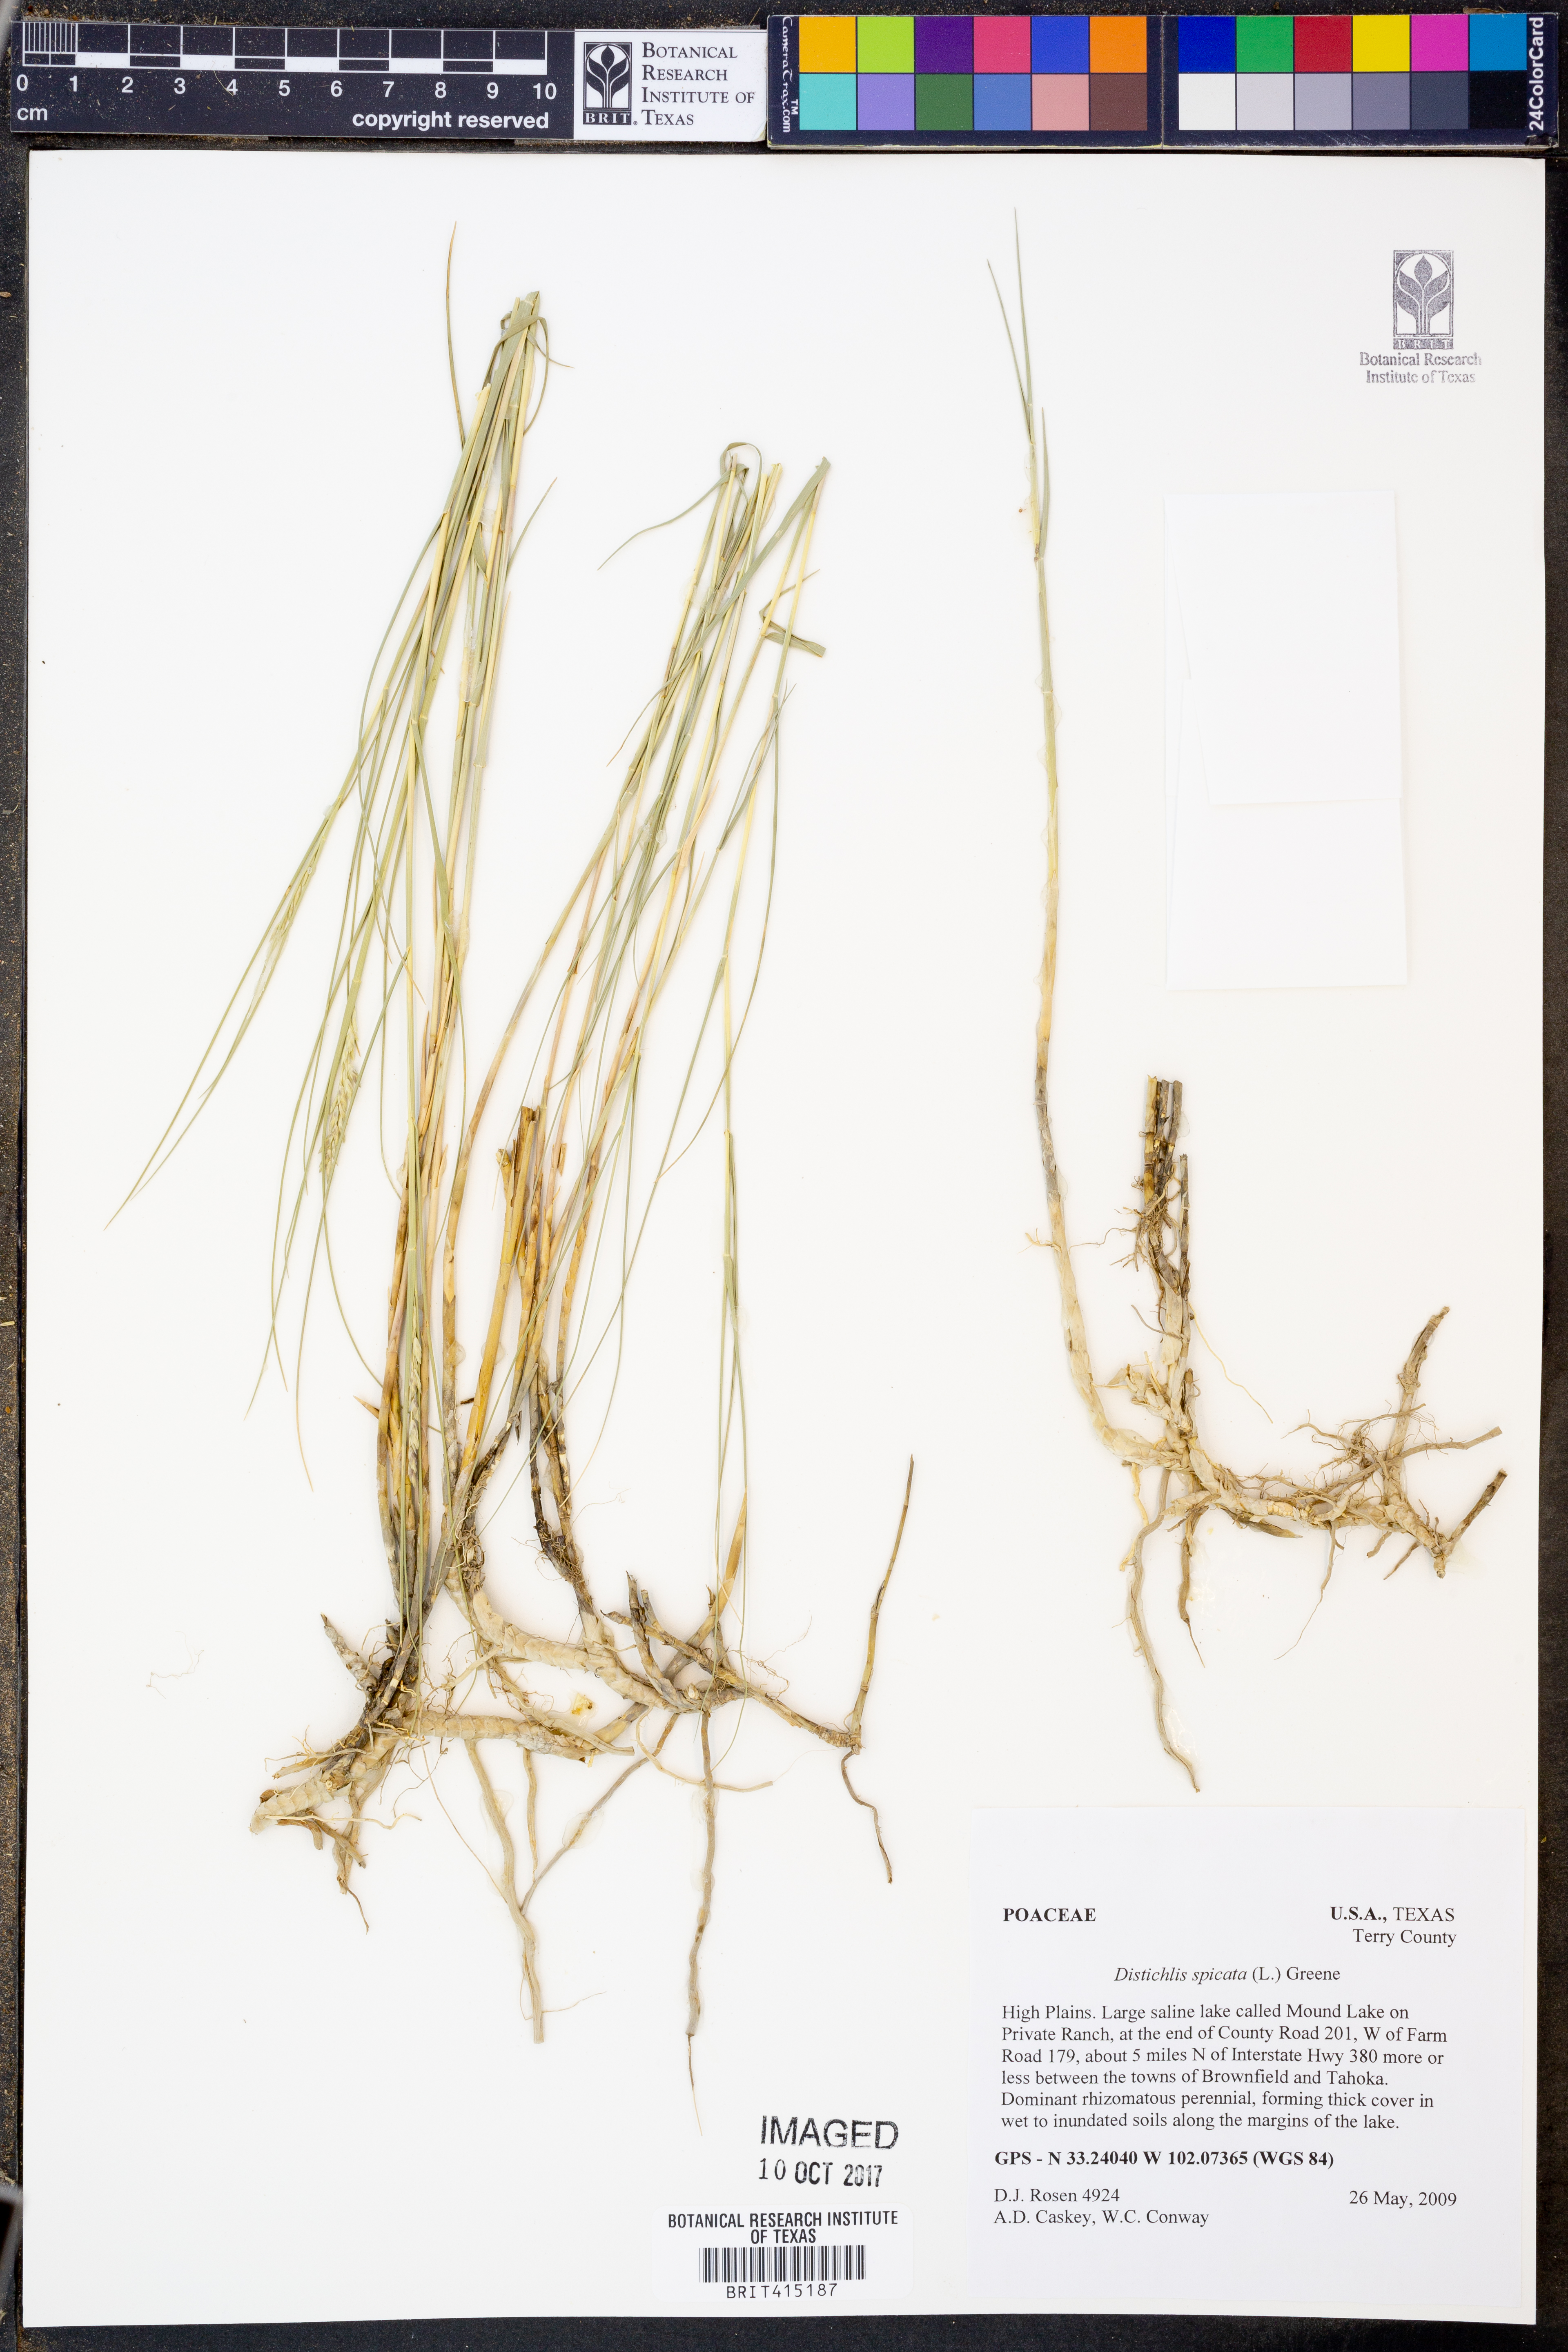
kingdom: Plantae
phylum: Tracheophyta
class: Liliopsida
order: Poales
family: Poaceae
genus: Distichlis
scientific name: Distichlis spicata
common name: Saltgrass
